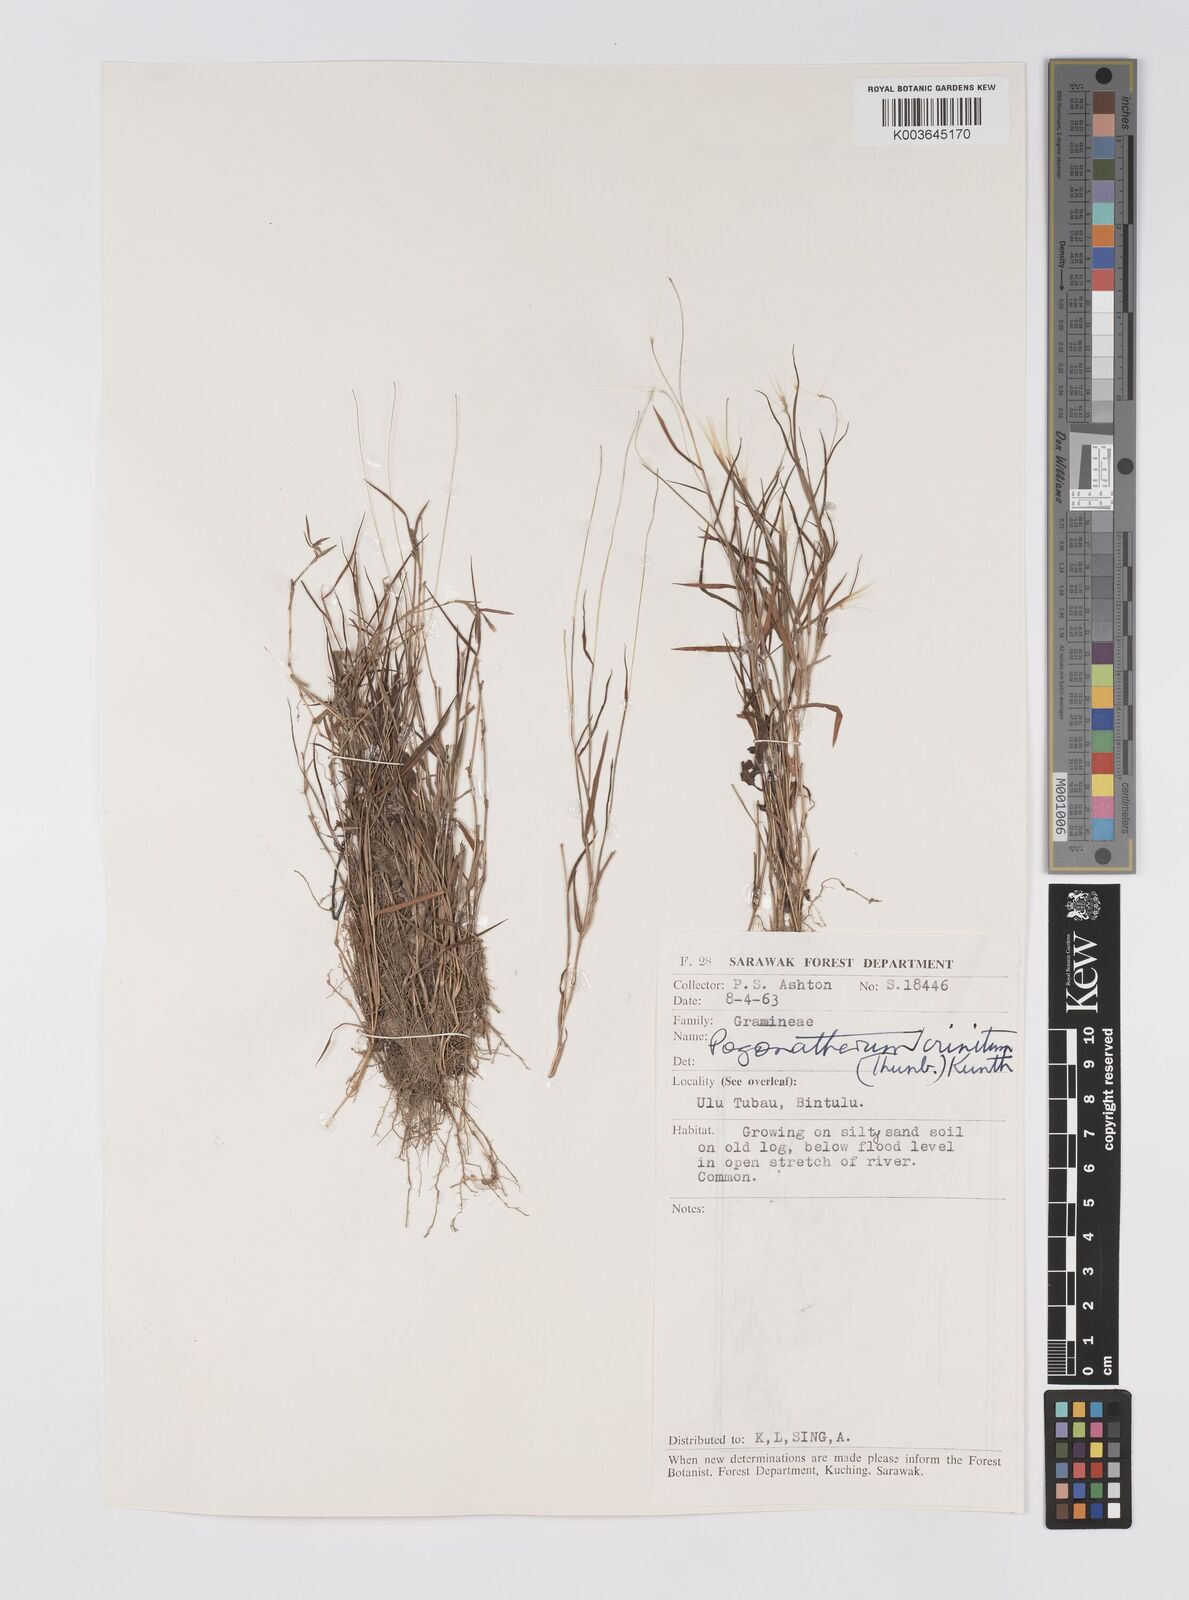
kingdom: Plantae
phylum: Tracheophyta
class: Liliopsida
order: Poales
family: Poaceae
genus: Pogonatherum
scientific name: Pogonatherum crinitum
